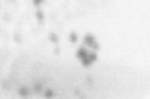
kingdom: Animalia
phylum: Chordata
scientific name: Chordata
